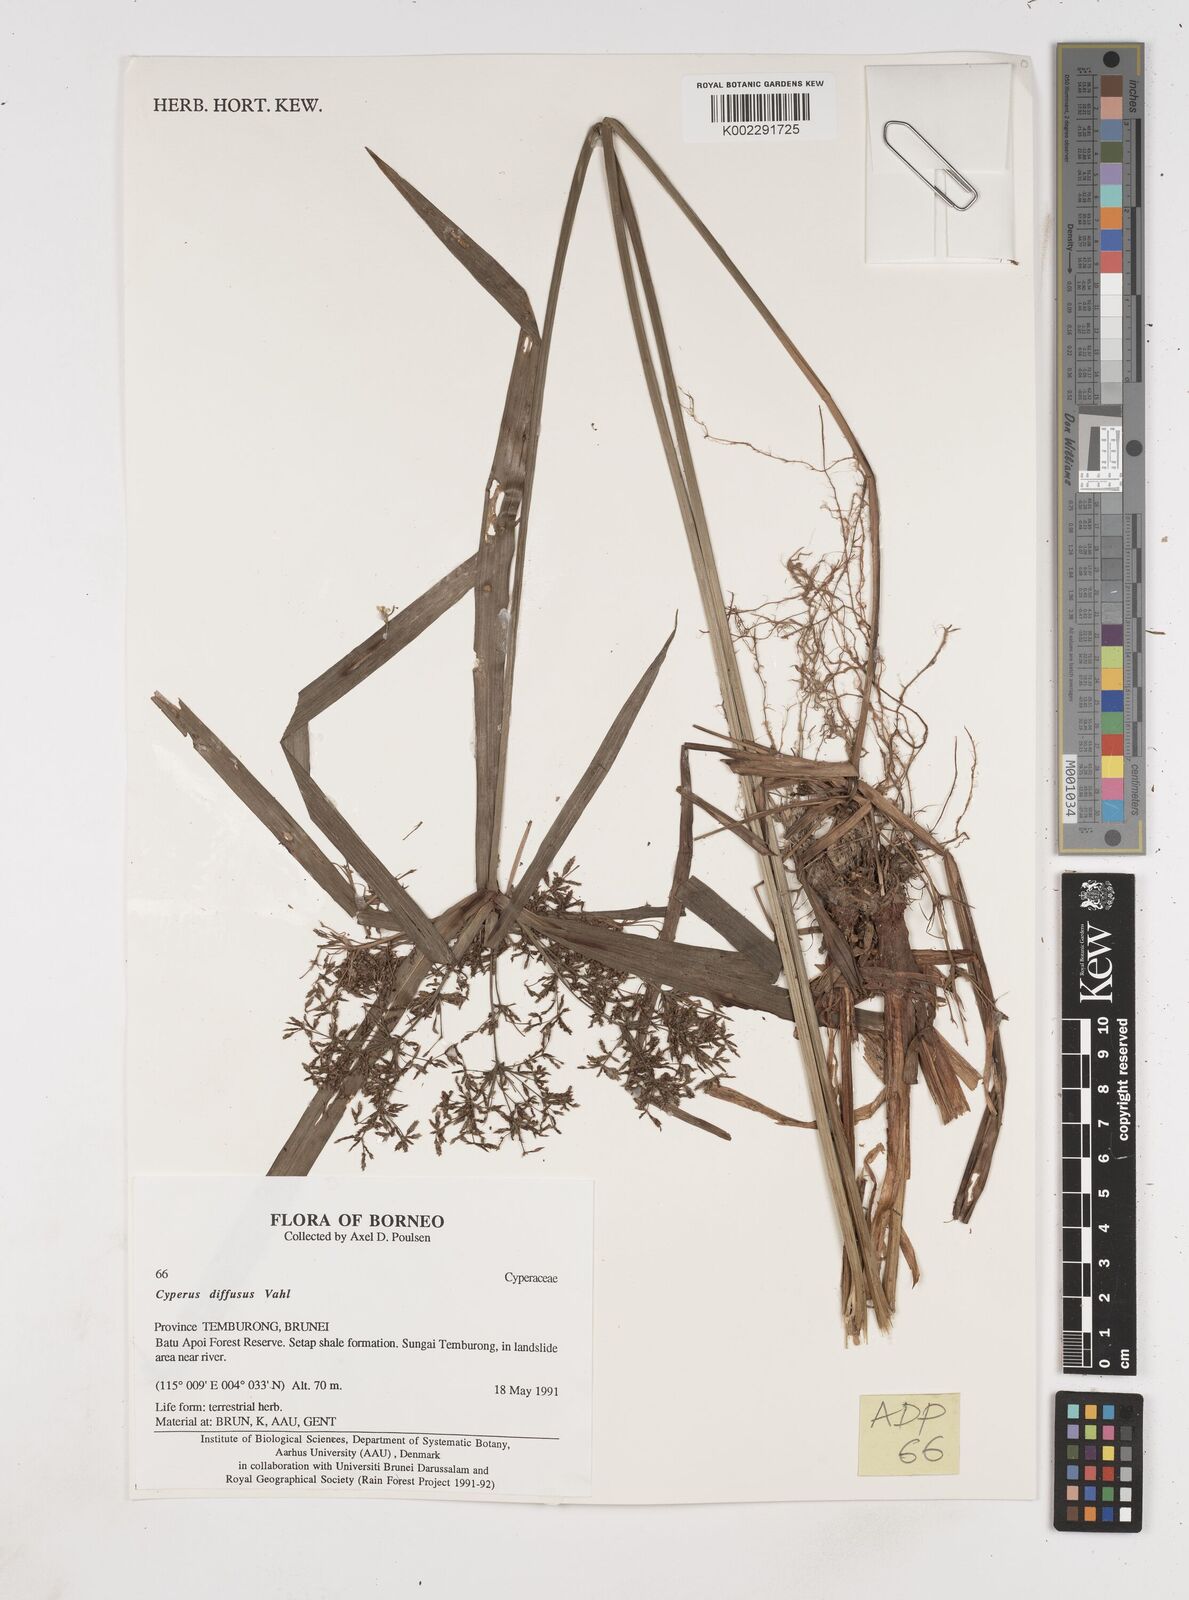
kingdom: Plantae
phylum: Tracheophyta
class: Liliopsida
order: Poales
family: Cyperaceae
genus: Cyperus
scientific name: Cyperus diffusus
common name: Dwarf umbrella grass
